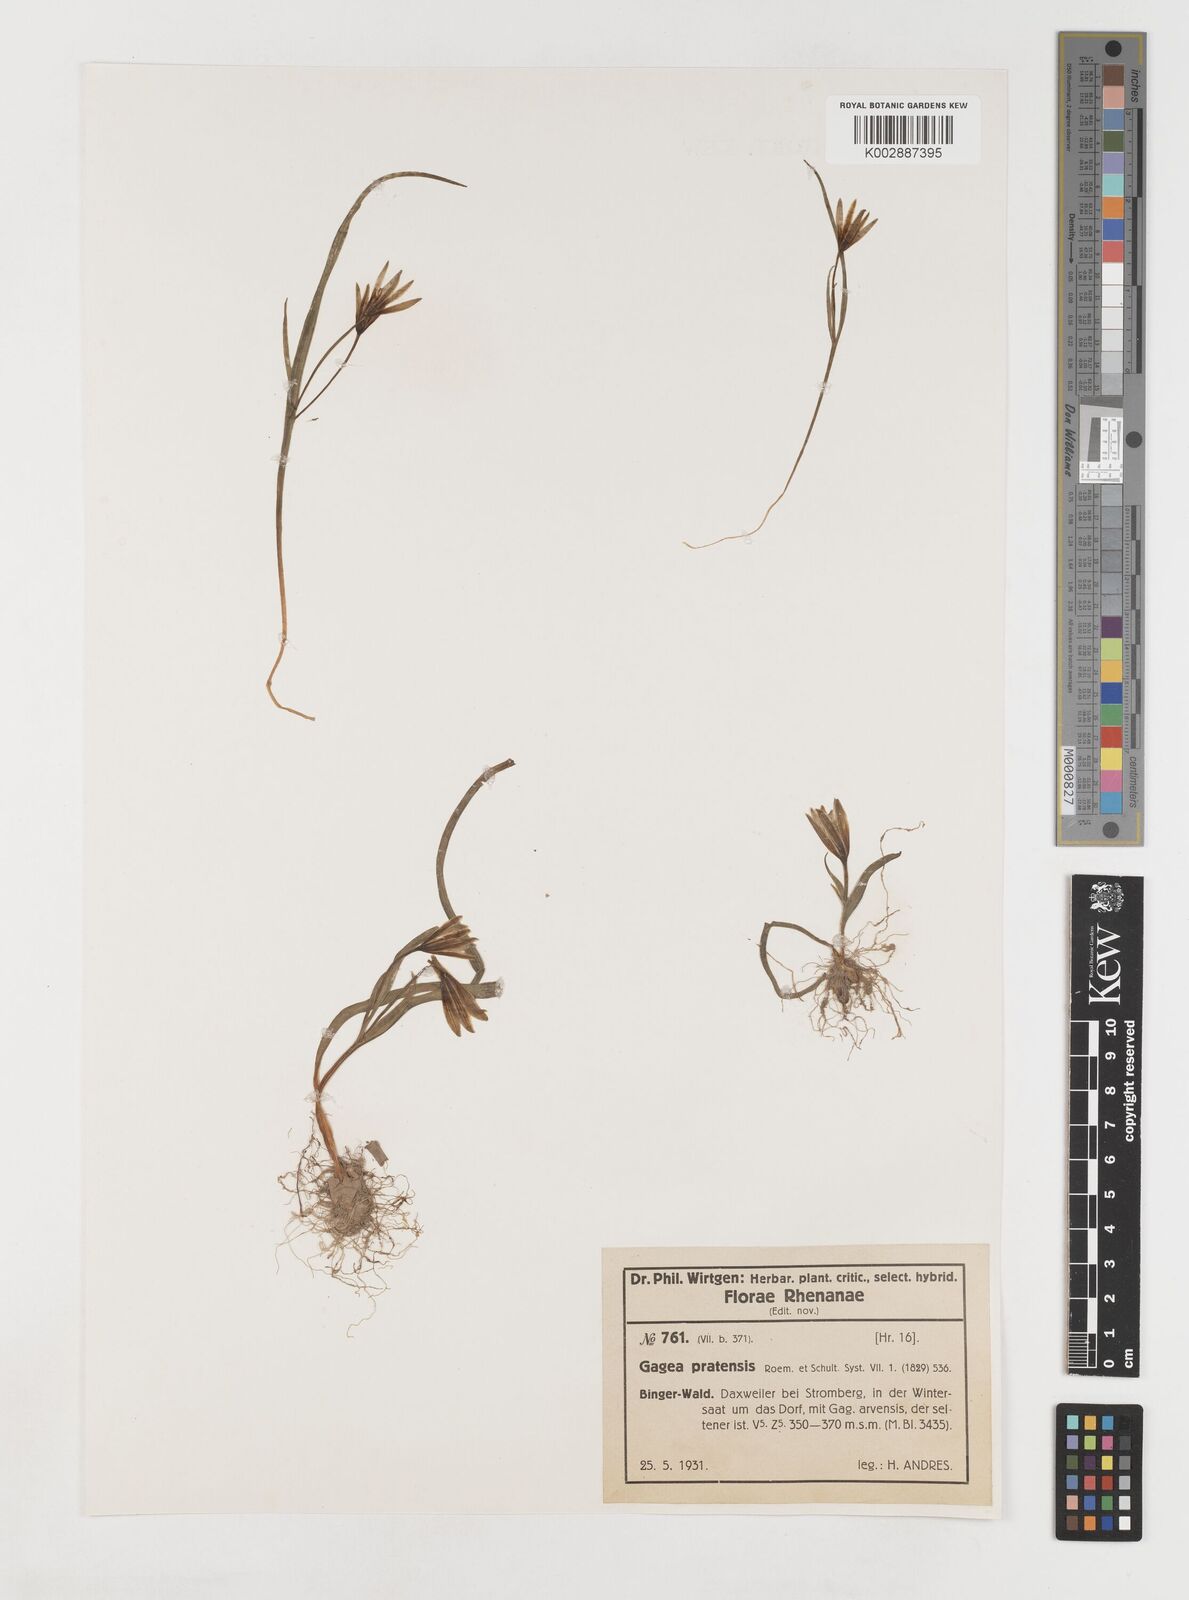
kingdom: Plantae
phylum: Tracheophyta
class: Liliopsida
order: Liliales
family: Liliaceae
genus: Gagea
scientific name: Gagea pratensis
